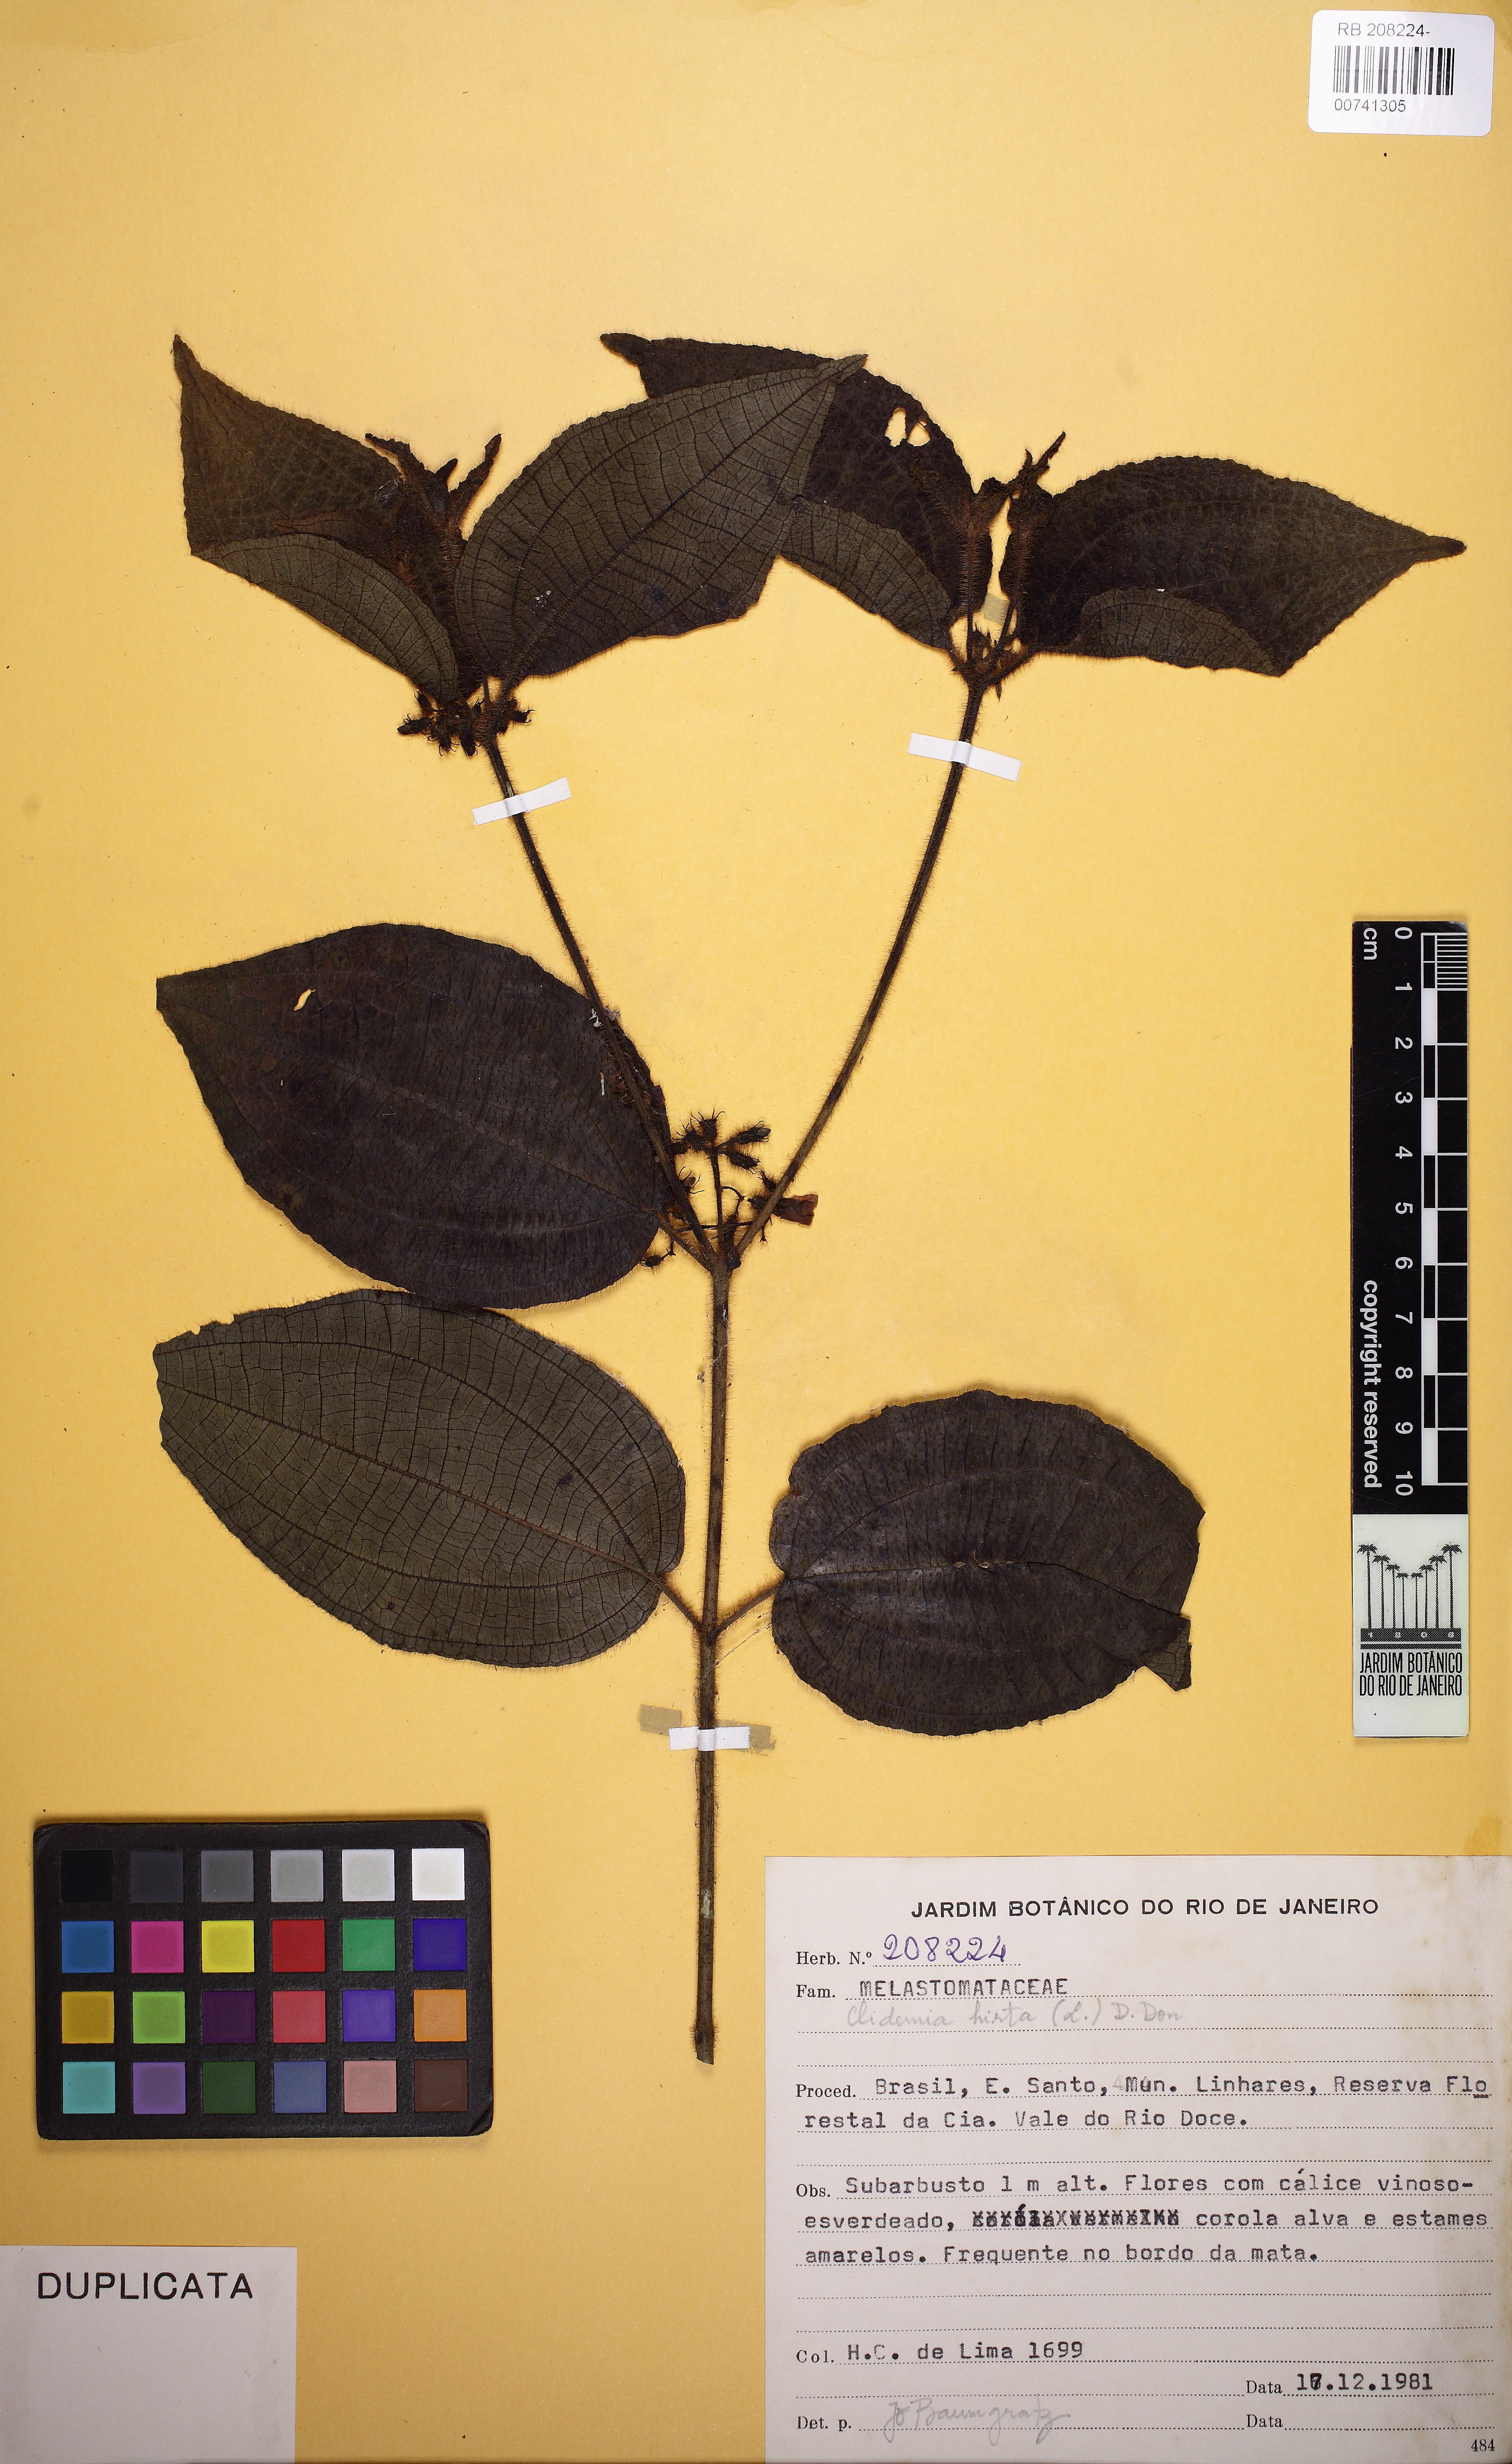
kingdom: Plantae
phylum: Tracheophyta
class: Magnoliopsida
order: Myrtales
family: Melastomataceae
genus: Miconia
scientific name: Miconia crenata
